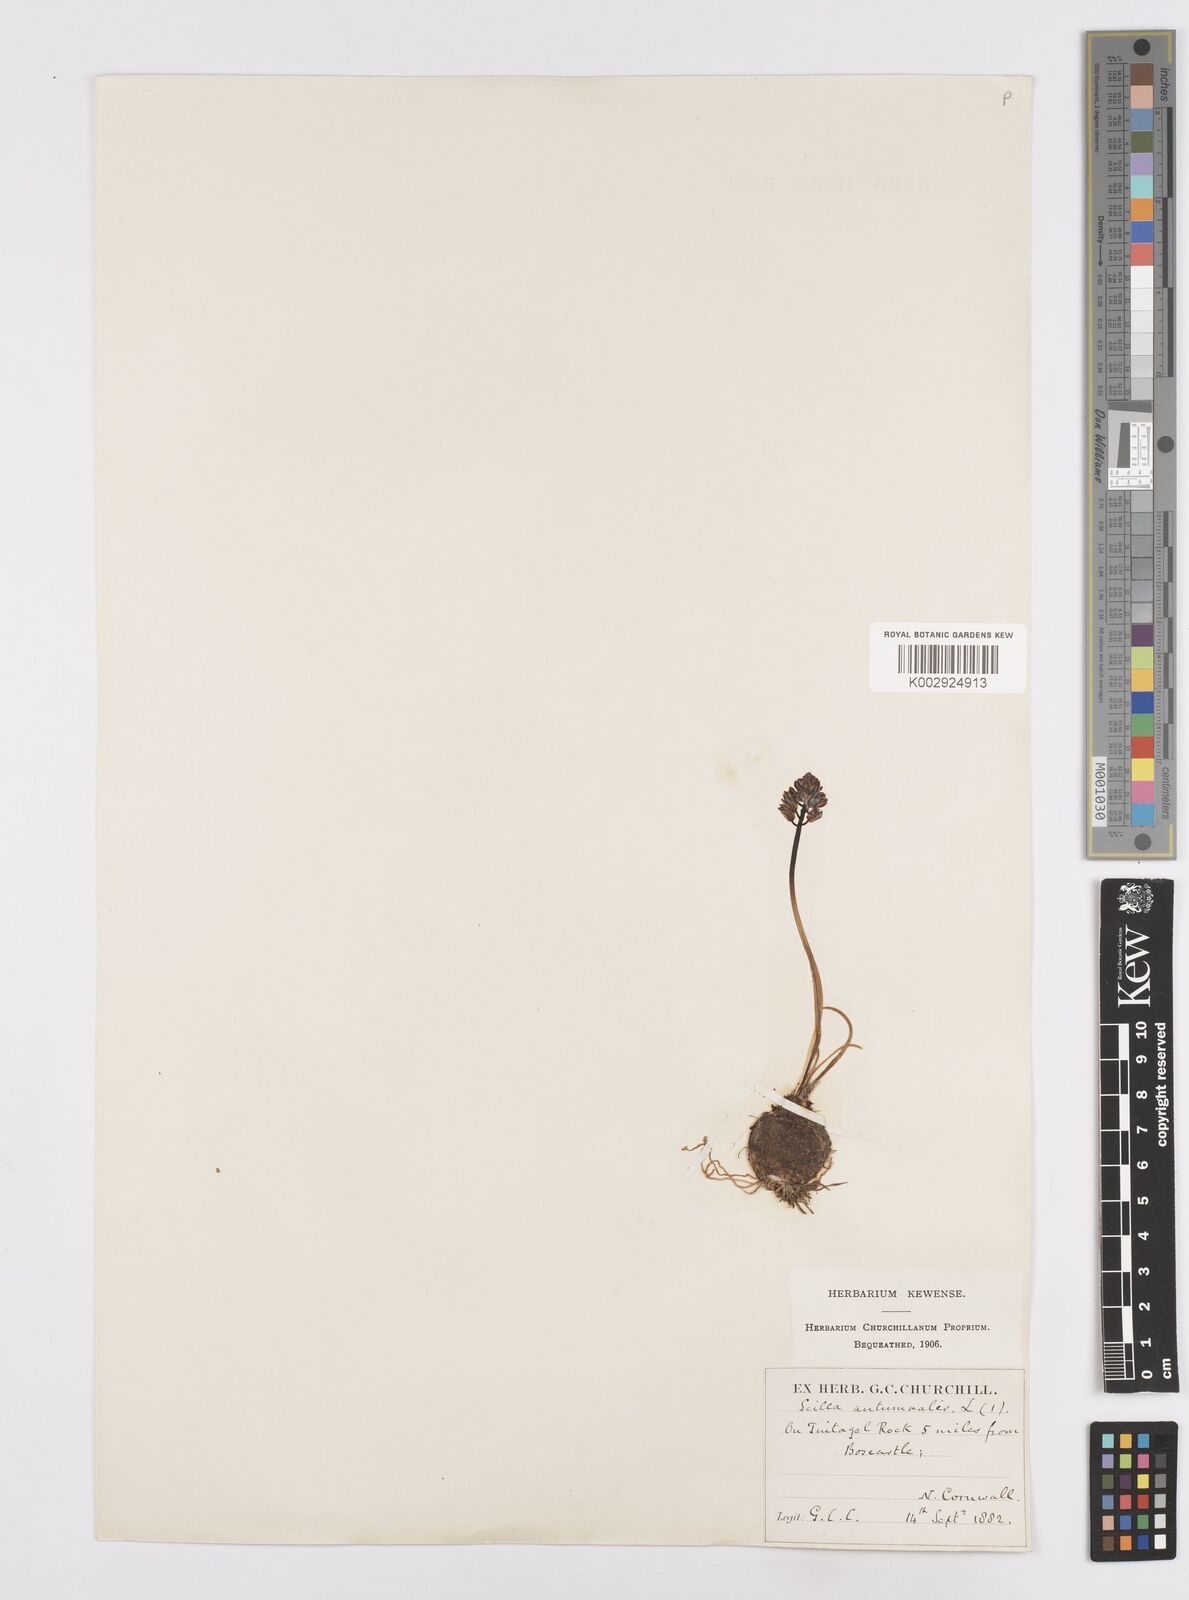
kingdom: Plantae
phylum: Tracheophyta
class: Liliopsida
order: Asparagales
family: Asparagaceae
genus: Prospero
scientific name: Prospero autumnale
